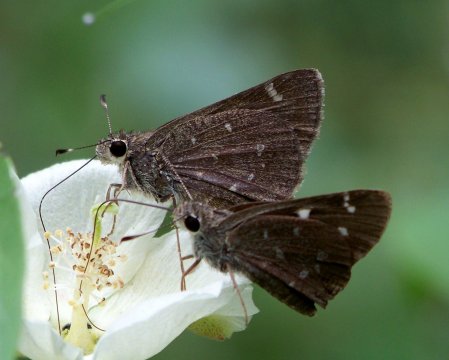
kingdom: Animalia
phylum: Arthropoda
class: Insecta
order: Lepidoptera
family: Hesperiidae
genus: Atrytonopsis
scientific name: Atrytonopsis ovinia
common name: Sheep Skipper
